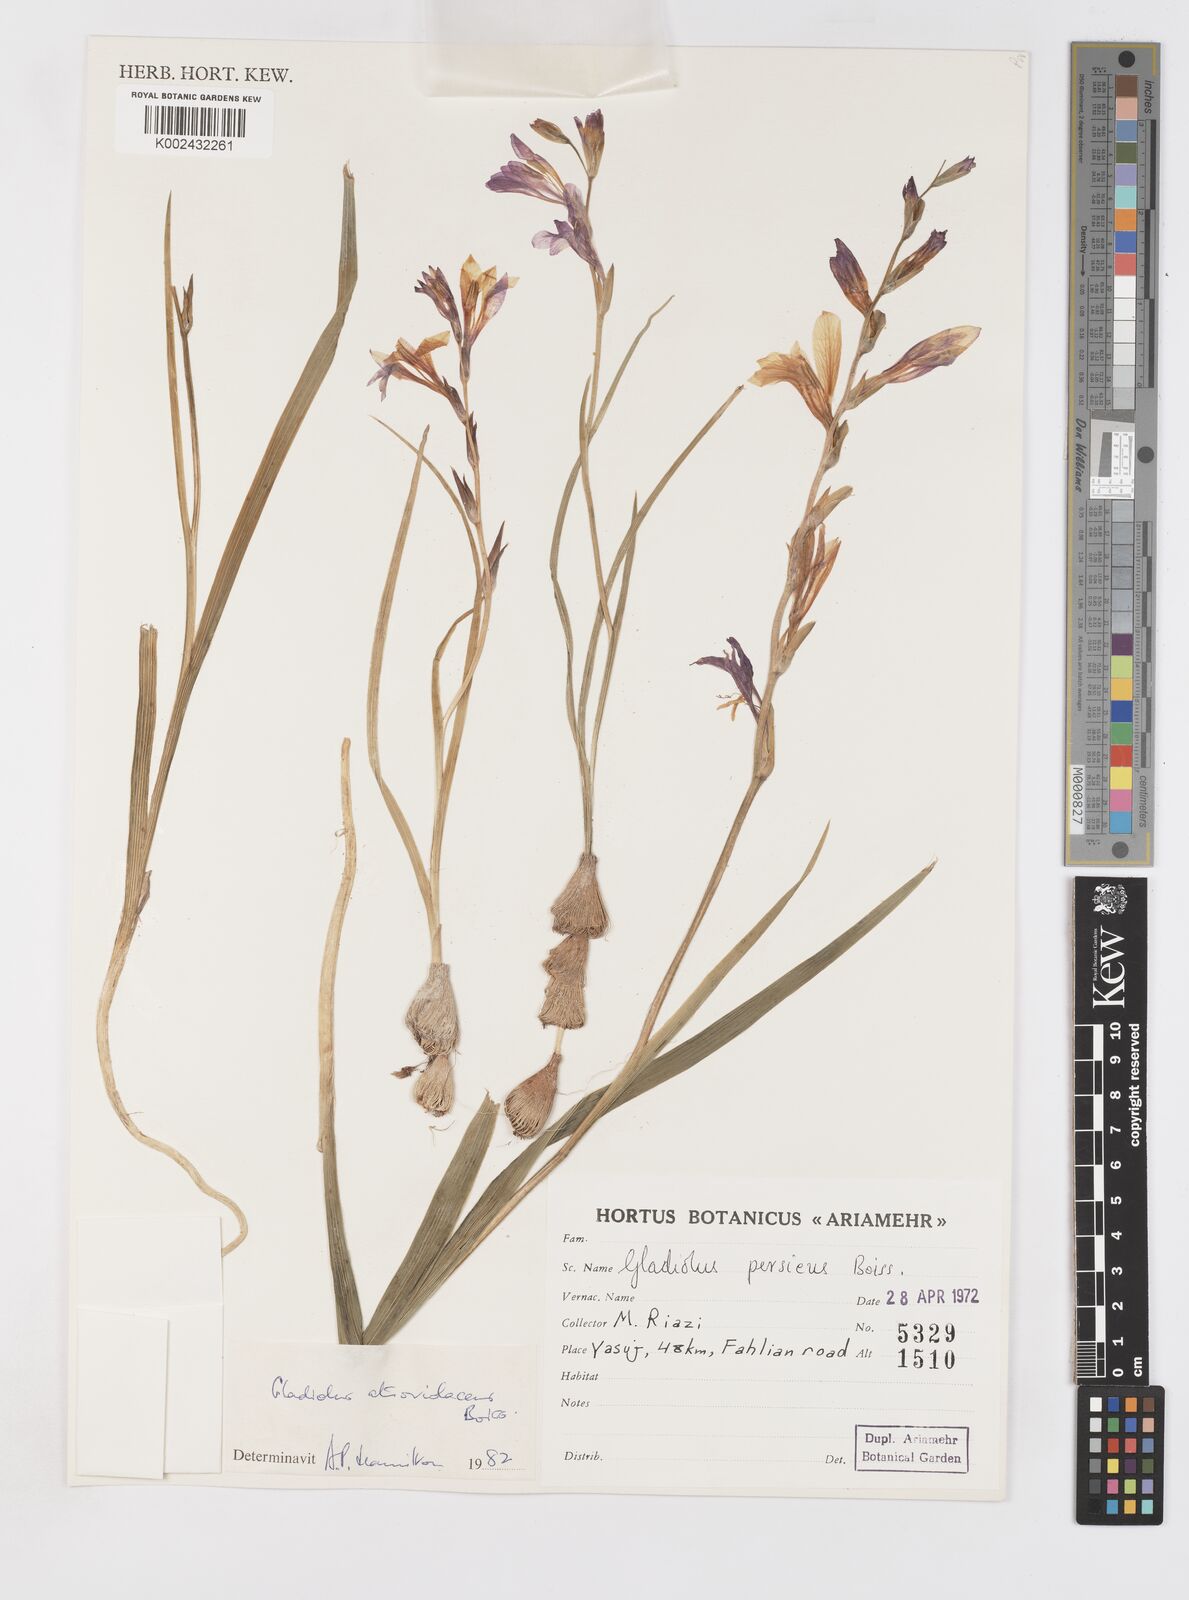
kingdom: Plantae
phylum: Tracheophyta
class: Liliopsida
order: Asparagales
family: Iridaceae
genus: Gladiolus
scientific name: Gladiolus atroviolaceus
